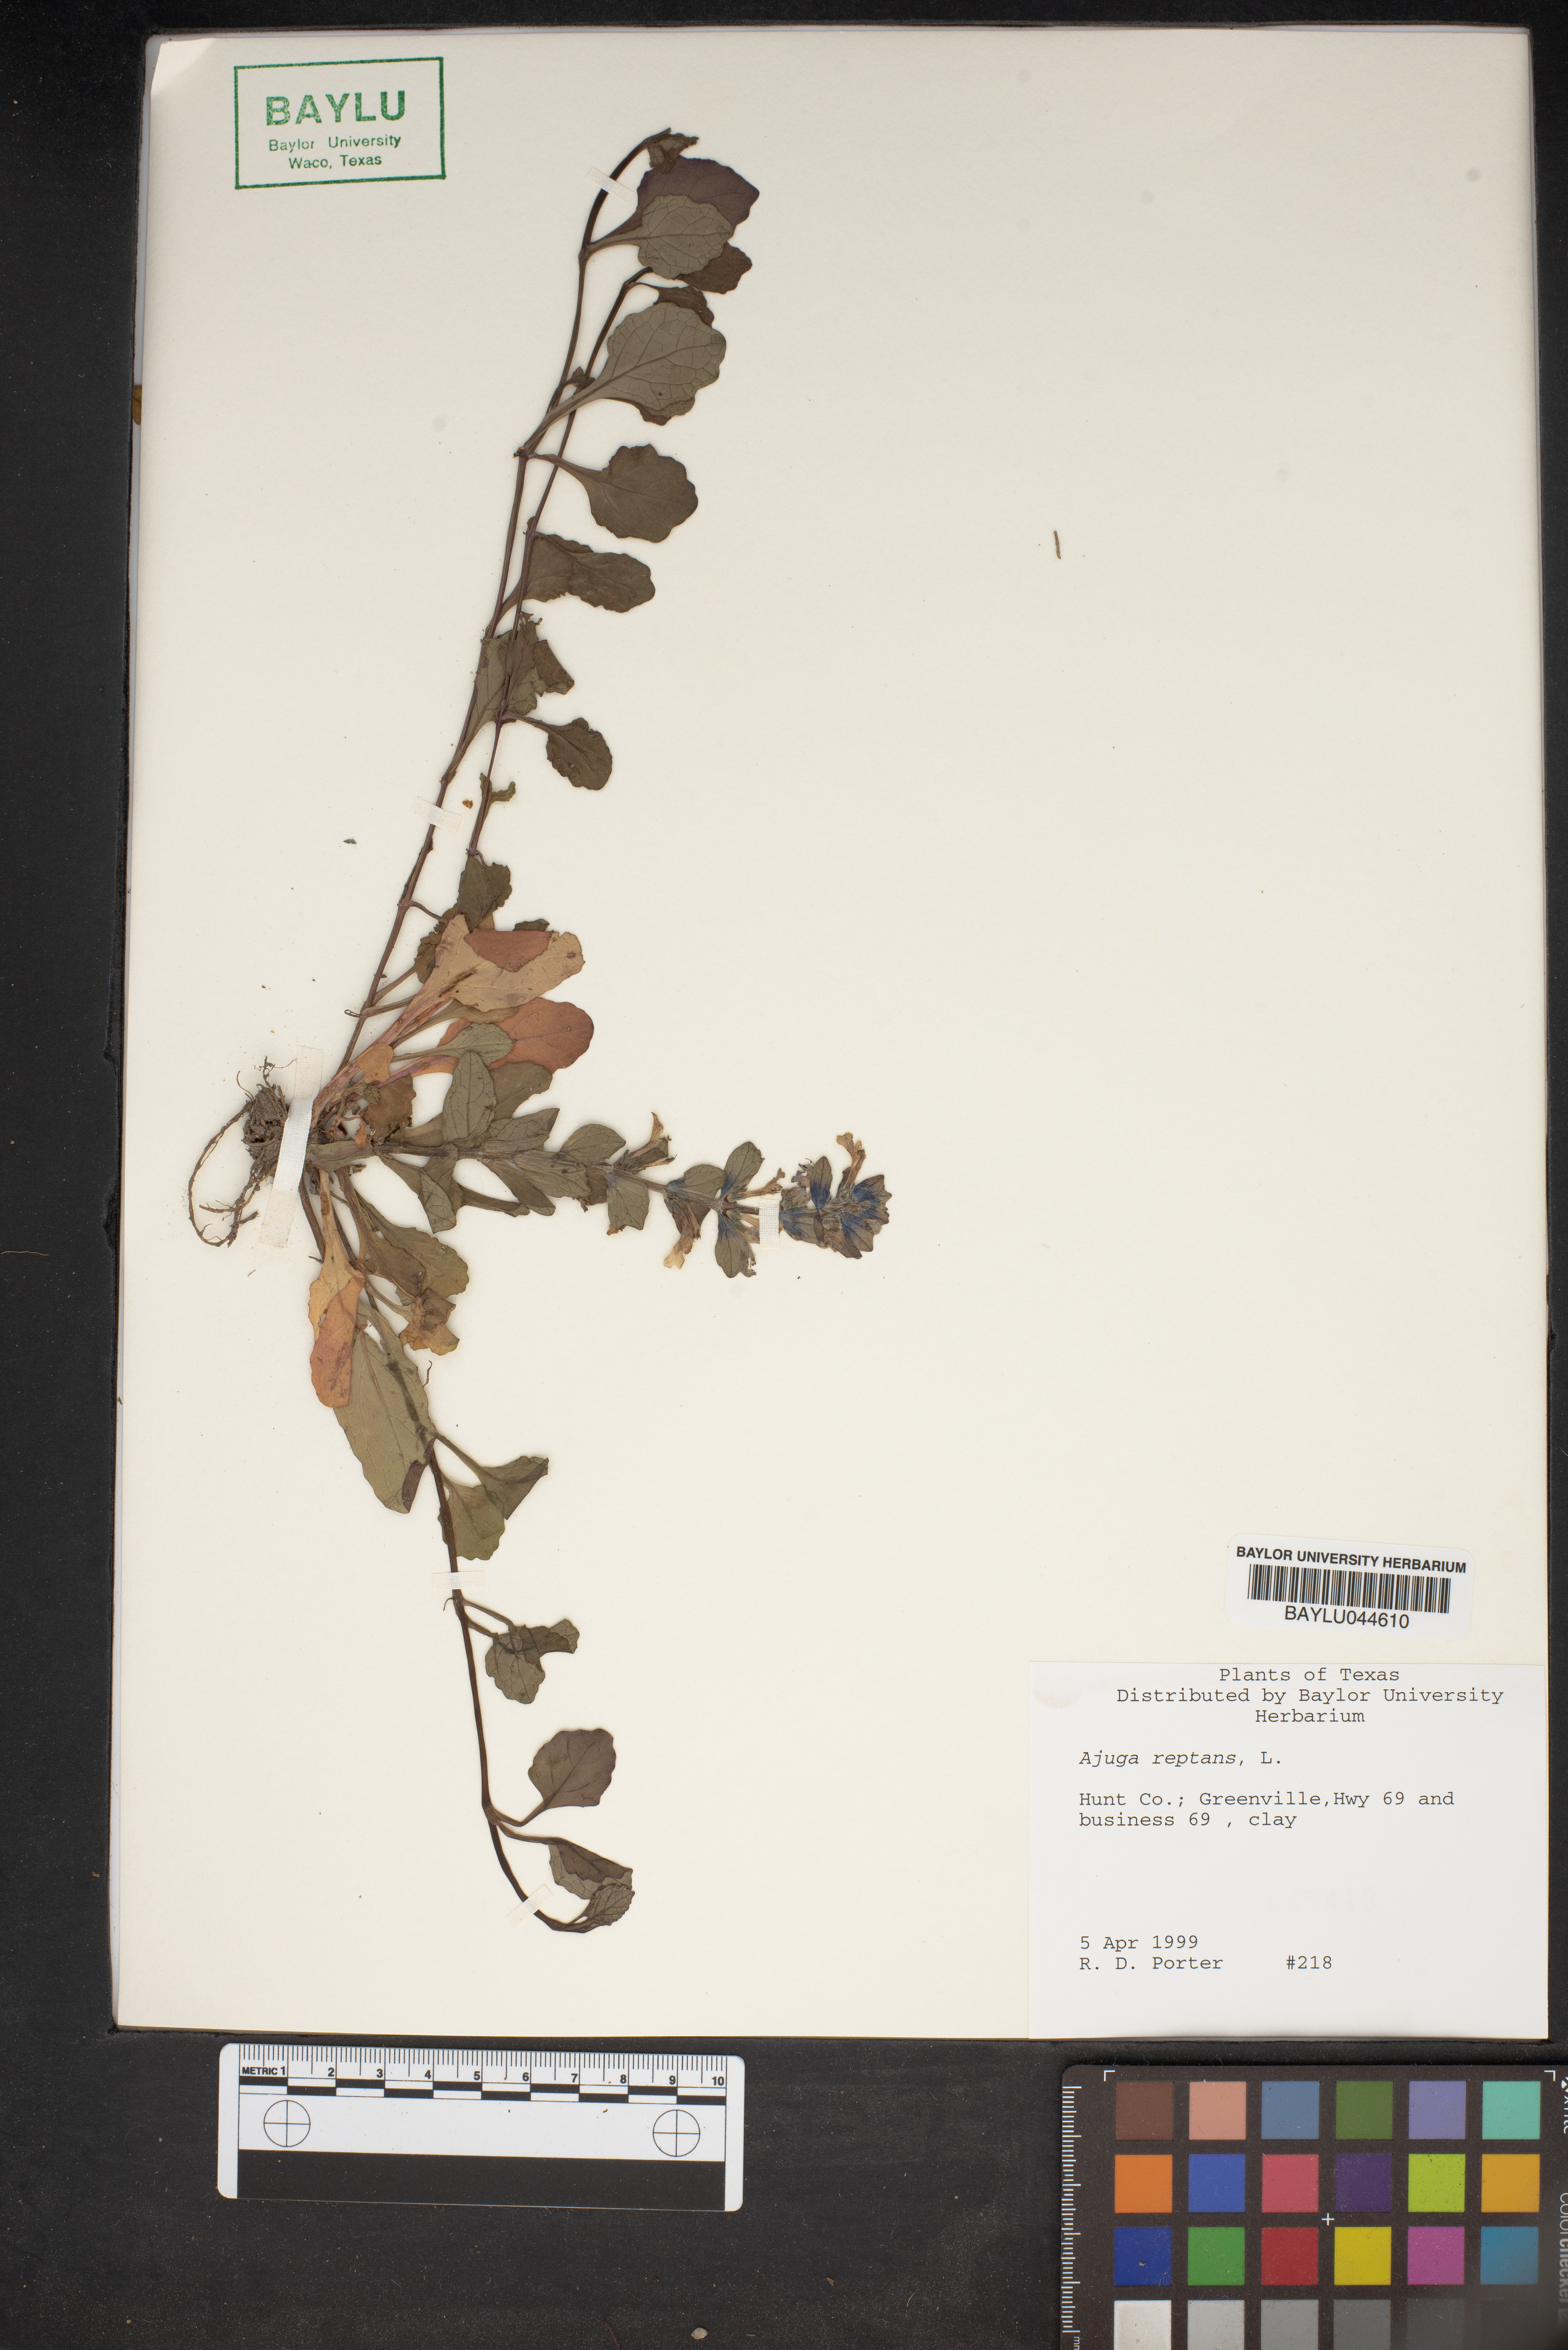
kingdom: Plantae
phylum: Tracheophyta
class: Magnoliopsida
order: Lamiales
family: Lamiaceae
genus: Ajuga
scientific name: Ajuga reptans
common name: Bugle
